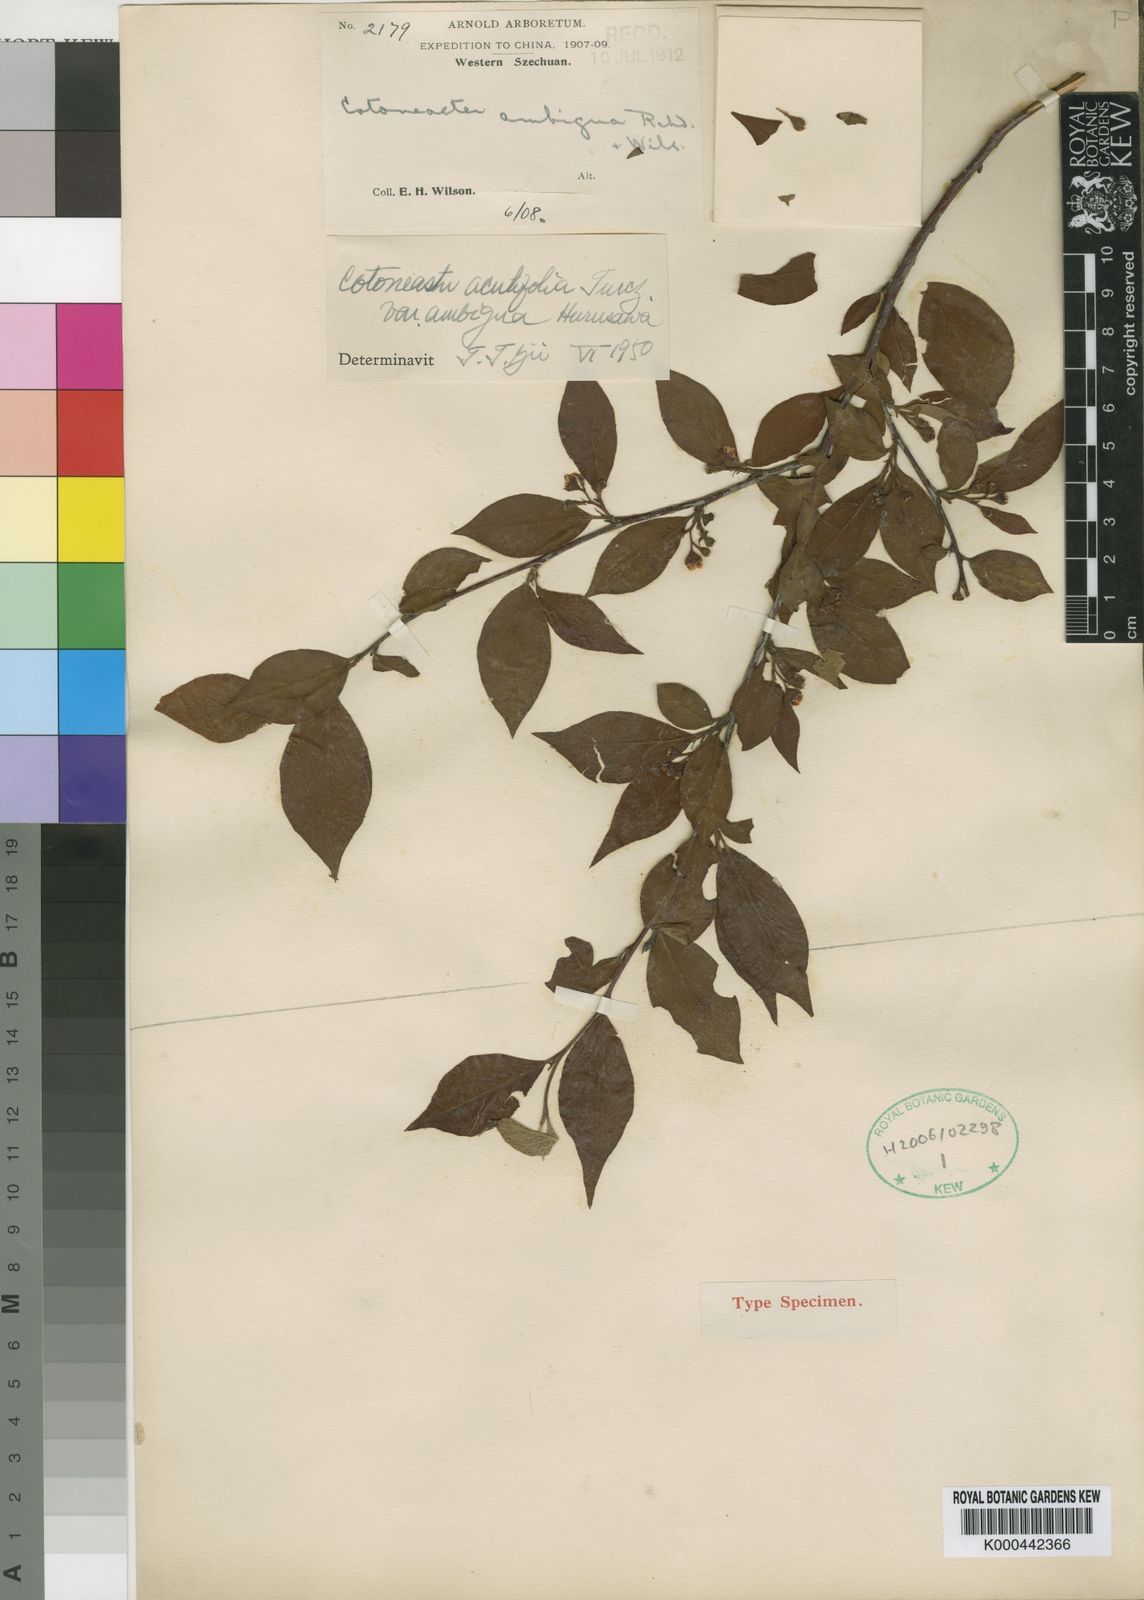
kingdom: Plantae
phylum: Tracheophyta
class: Magnoliopsida
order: Rosales
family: Rosaceae
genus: Cotoneaster
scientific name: Cotoneaster
